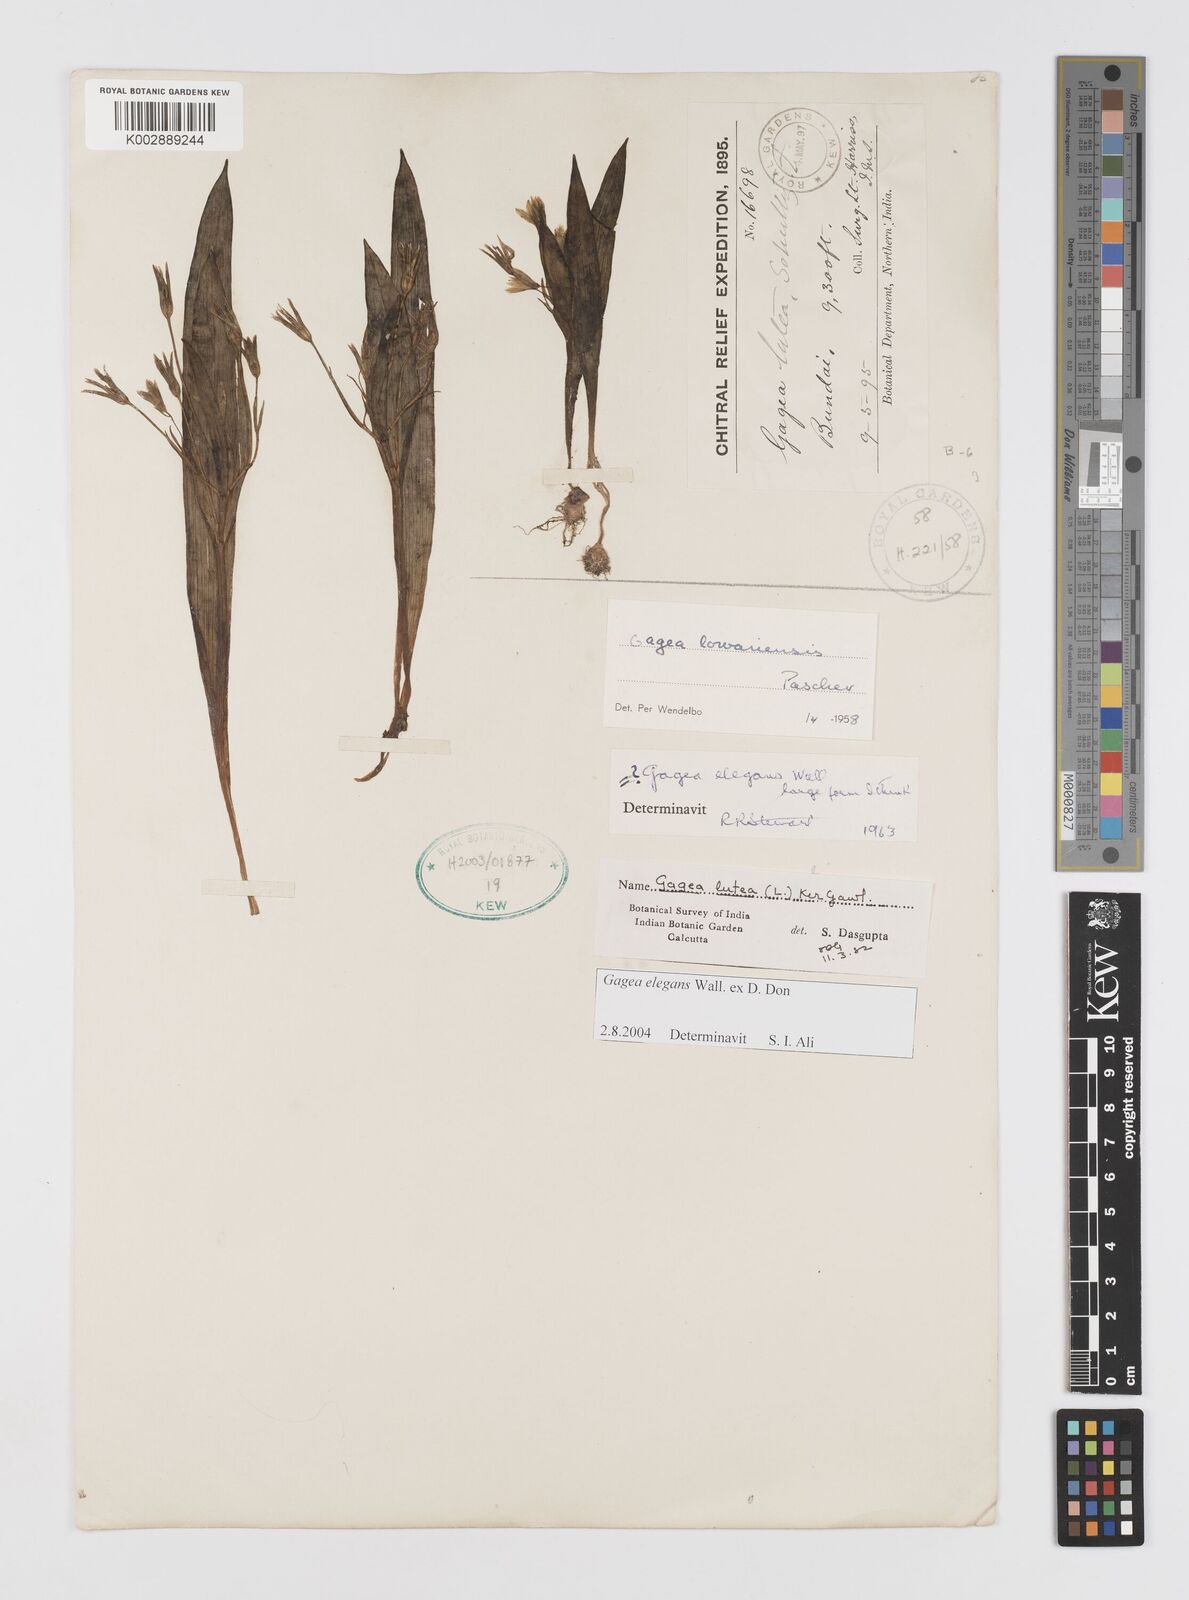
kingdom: Plantae
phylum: Tracheophyta
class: Liliopsida
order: Liliales
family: Liliaceae
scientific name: Liliaceae
